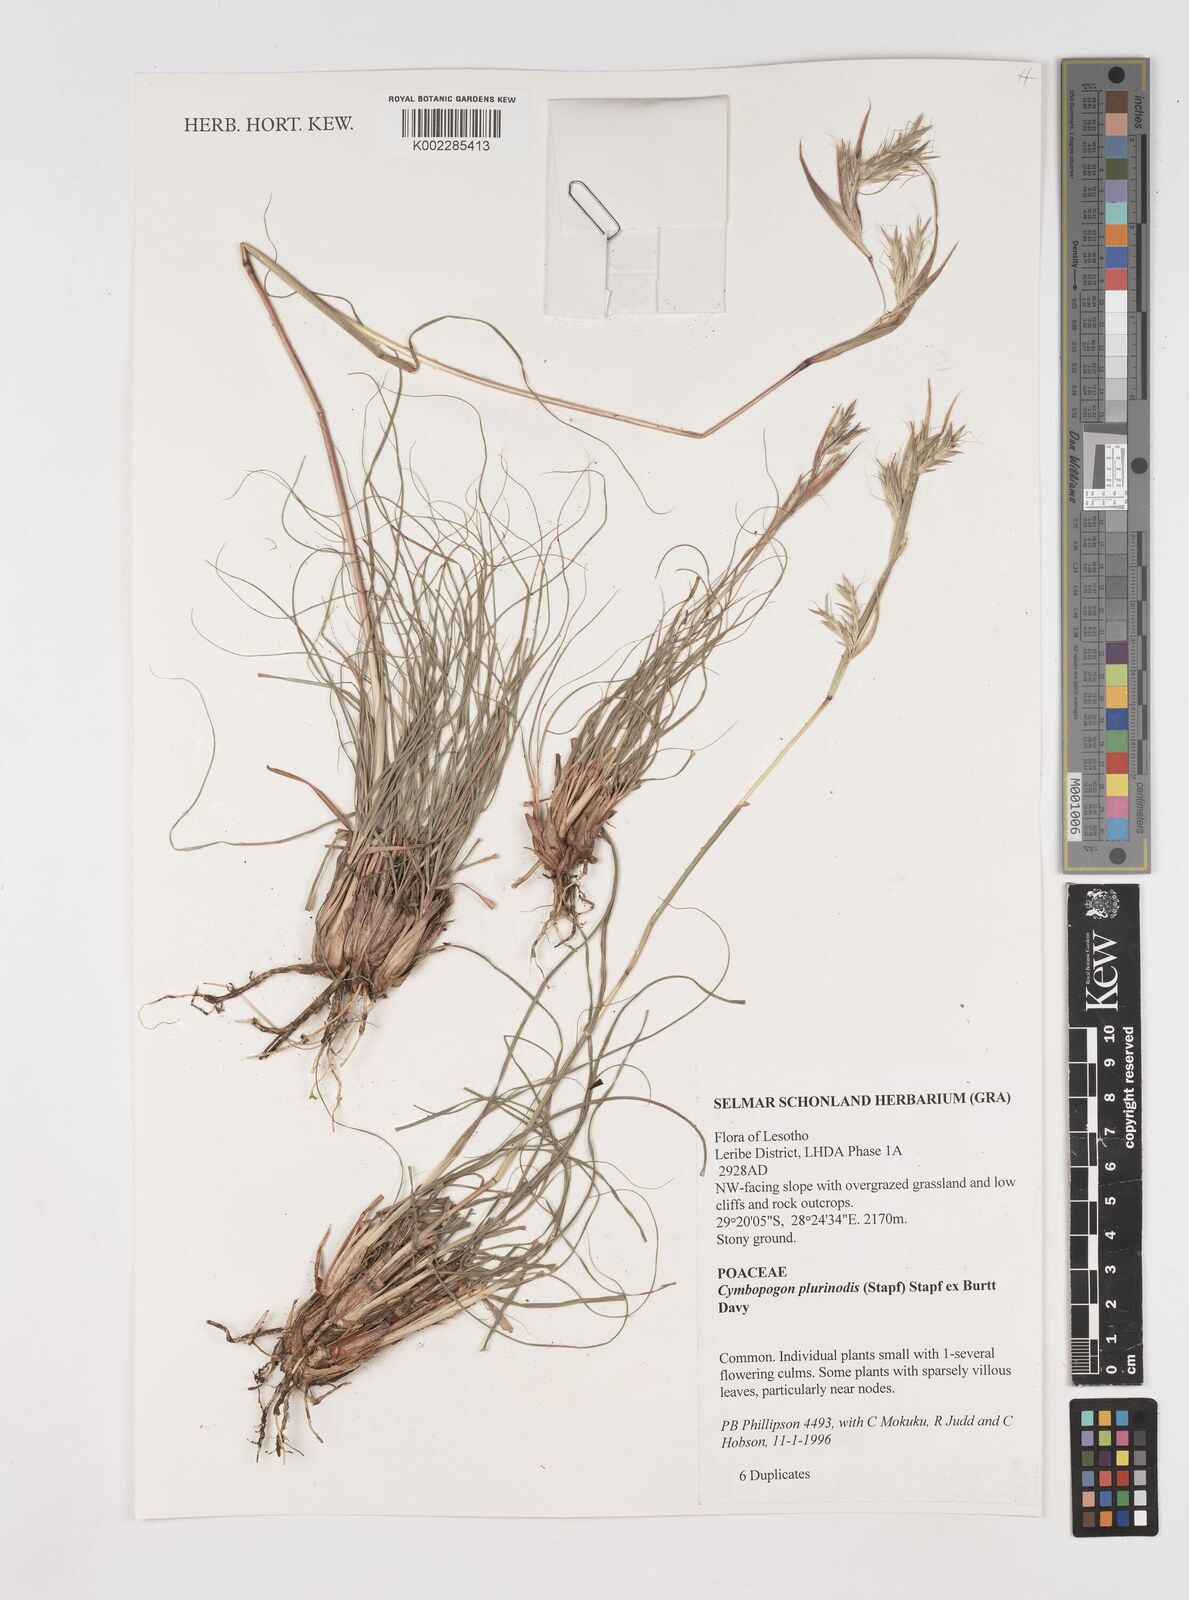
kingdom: Plantae
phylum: Tracheophyta
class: Liliopsida
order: Poales
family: Poaceae
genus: Cymbopogon
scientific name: Cymbopogon
